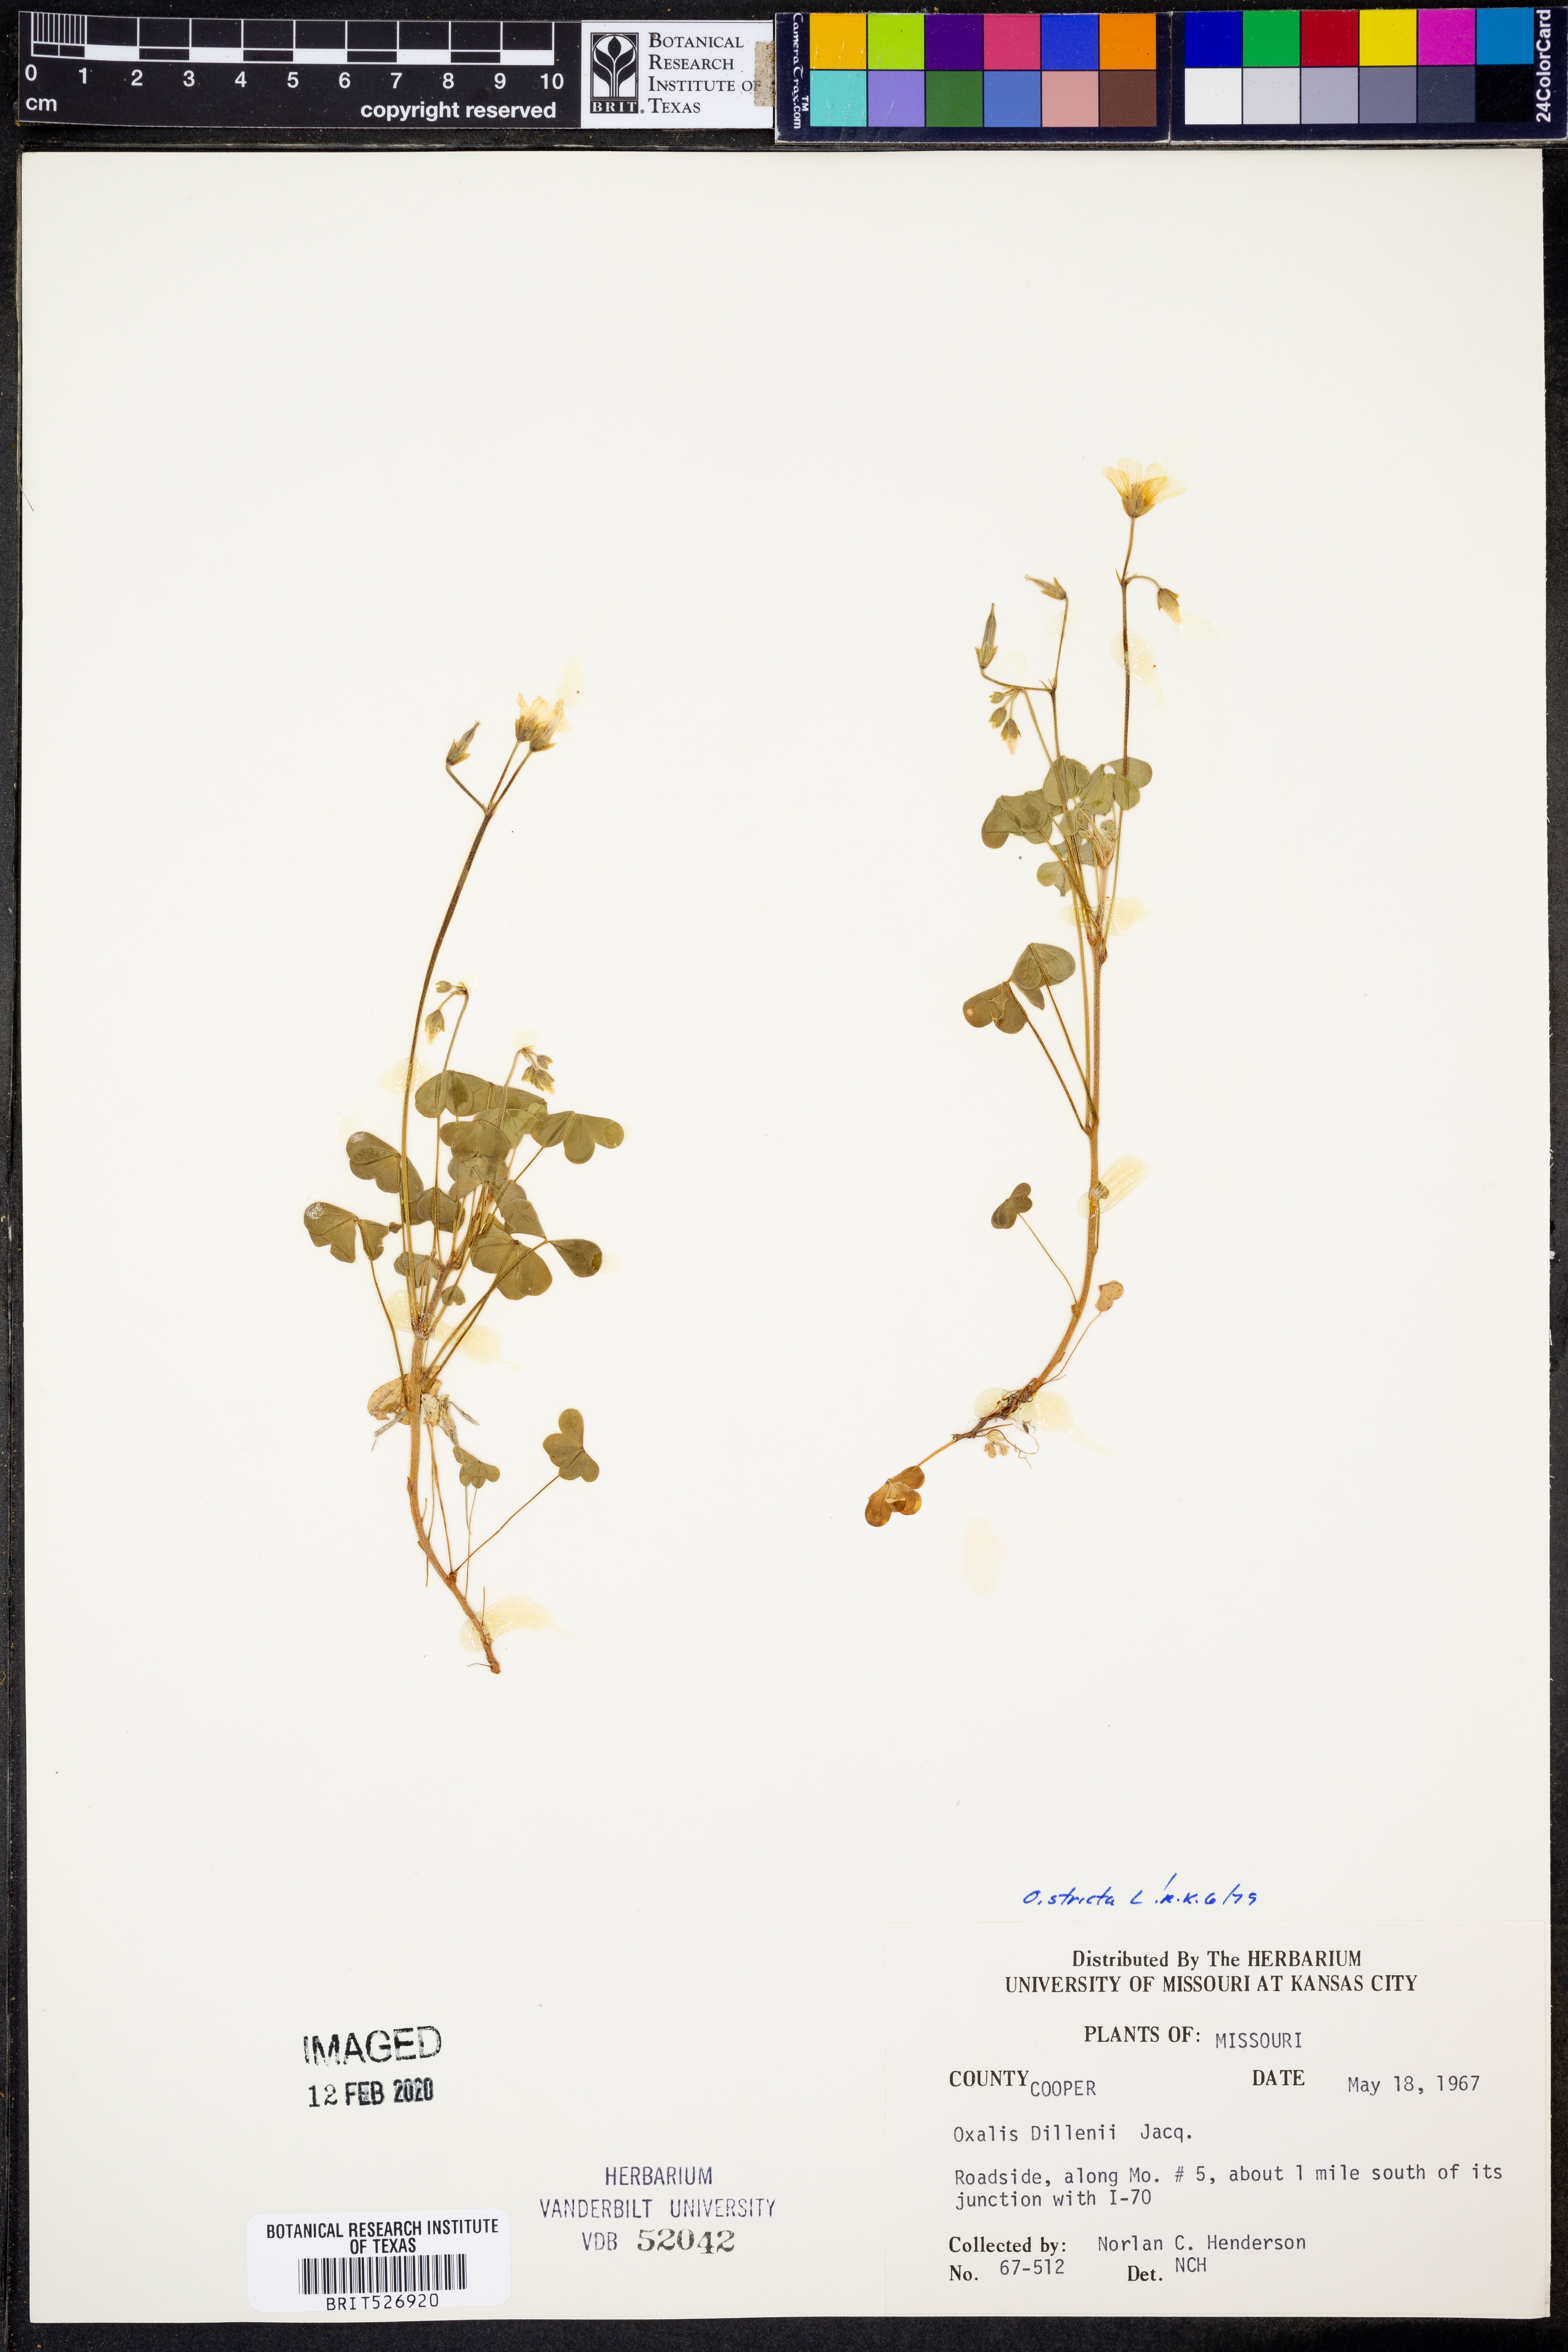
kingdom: Plantae
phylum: Tracheophyta
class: Magnoliopsida
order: Oxalidales
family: Oxalidaceae
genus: Oxalis
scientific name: Oxalis stricta
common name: Upright yellow-sorrel
